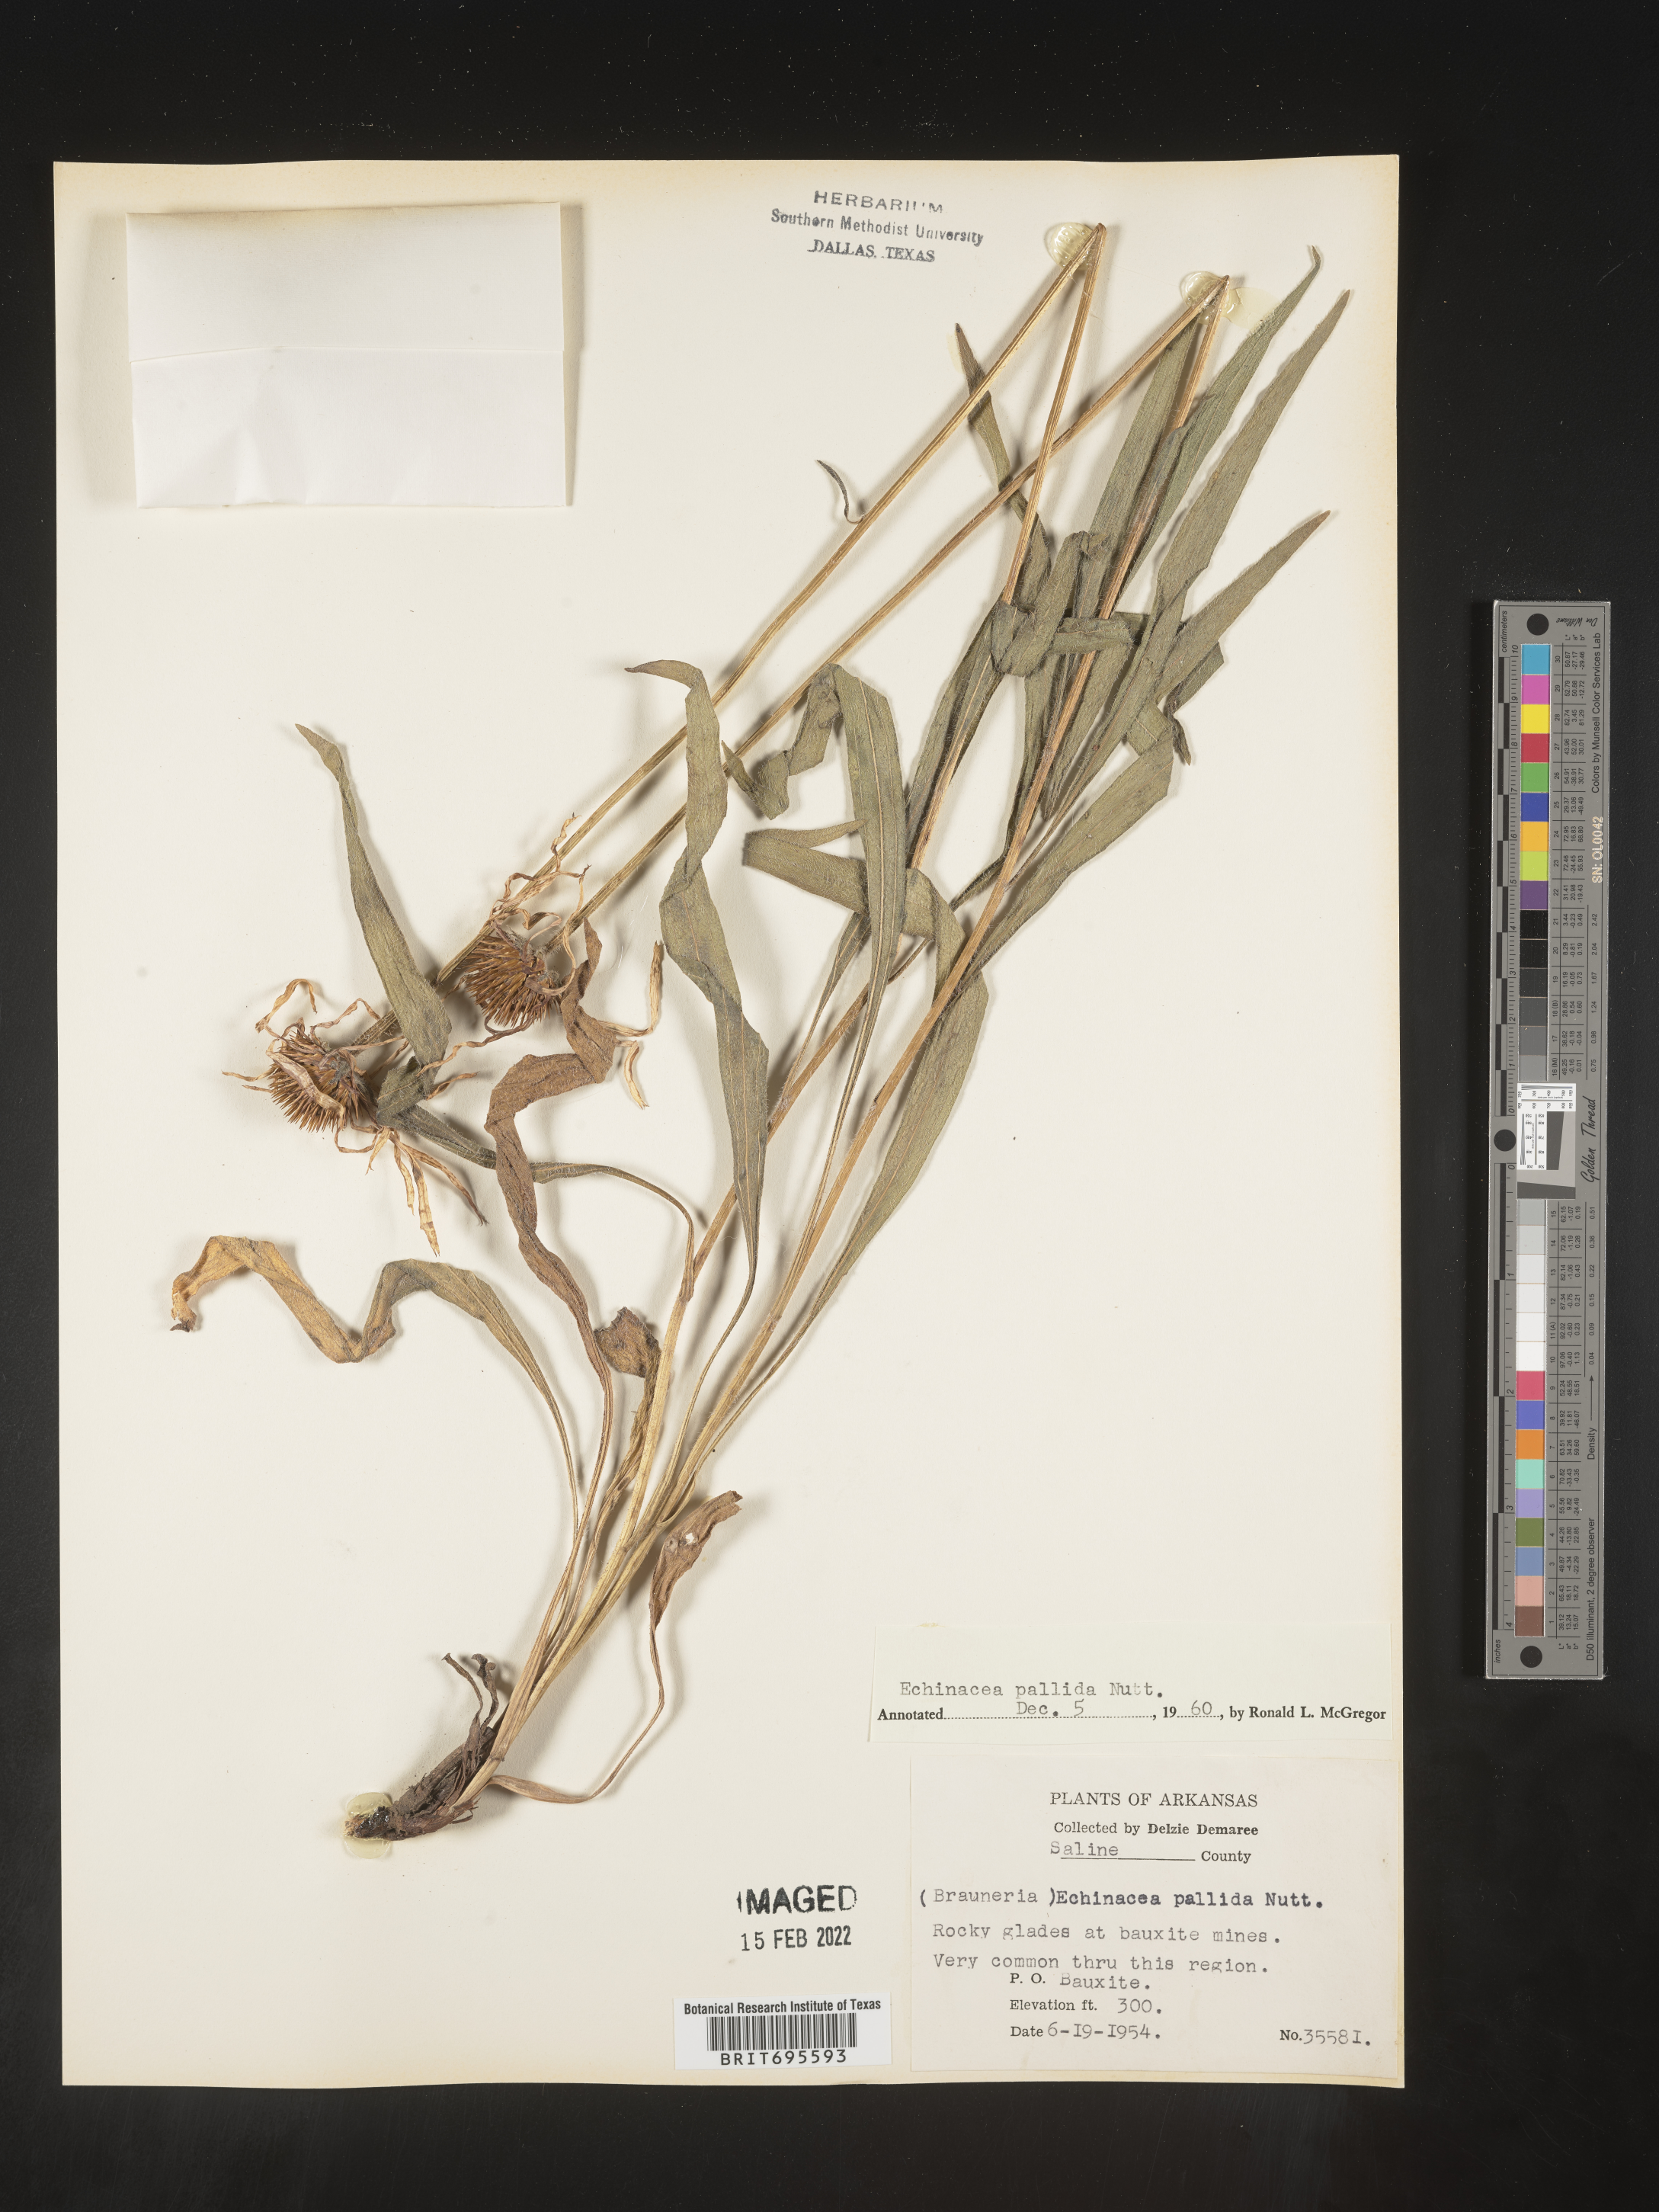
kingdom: Plantae
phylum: Tracheophyta
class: Magnoliopsida
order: Asterales
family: Asteraceae
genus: Echinacea
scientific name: Echinacea pallida
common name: Pale echinacea
